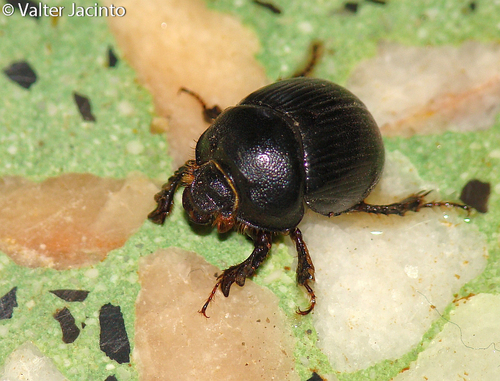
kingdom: Animalia
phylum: Arthropoda
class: Insecta
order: Coleoptera
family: Geotrupidae
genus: Bolbelasmus
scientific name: Bolbelasmus gallicus
